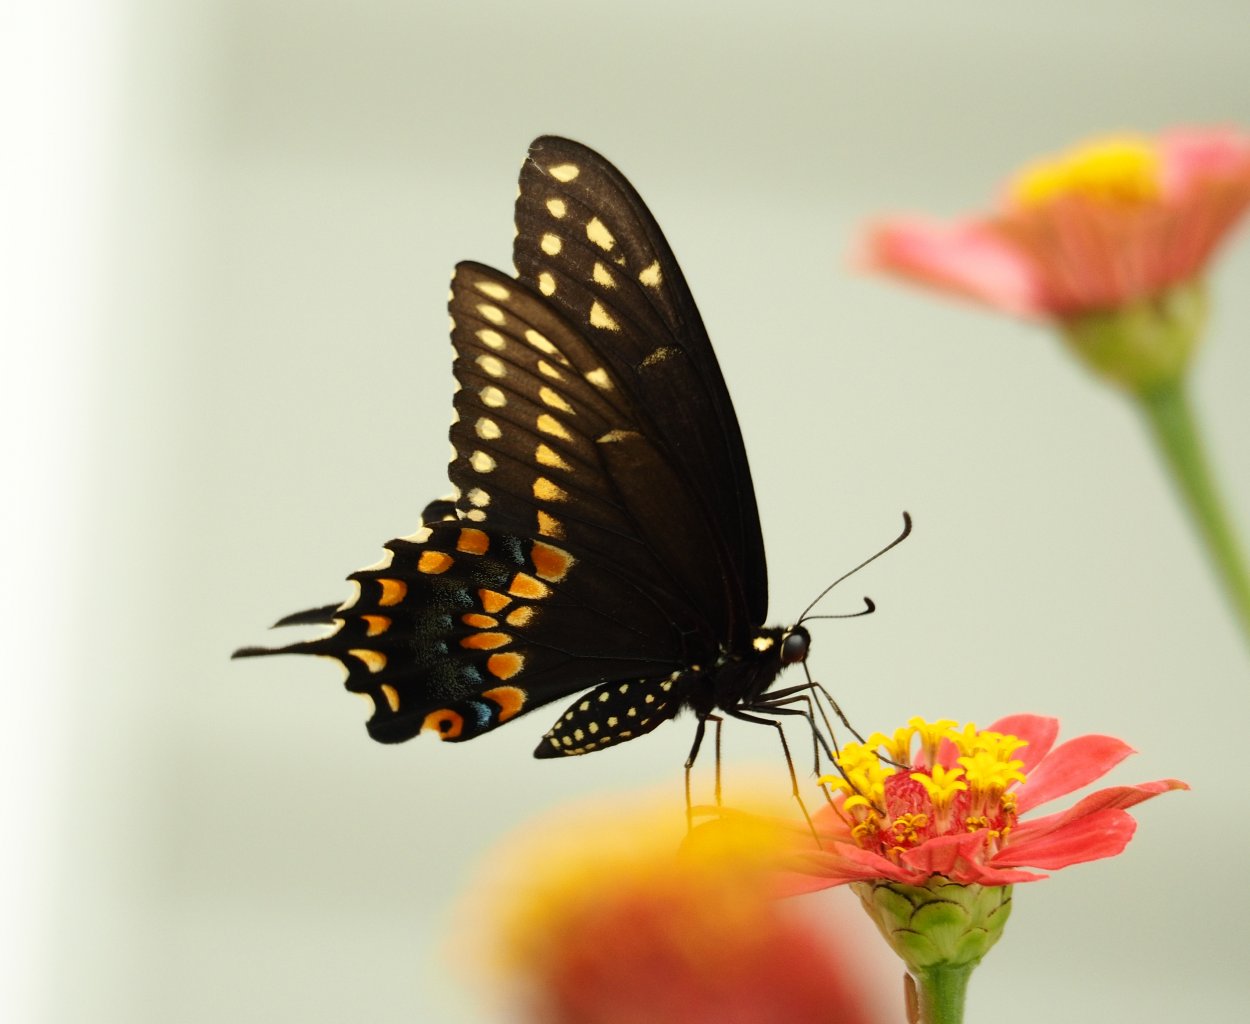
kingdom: Animalia
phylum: Arthropoda
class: Insecta
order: Lepidoptera
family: Papilionidae
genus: Papilio
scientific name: Papilio polyxenes
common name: Black Swallowtail
